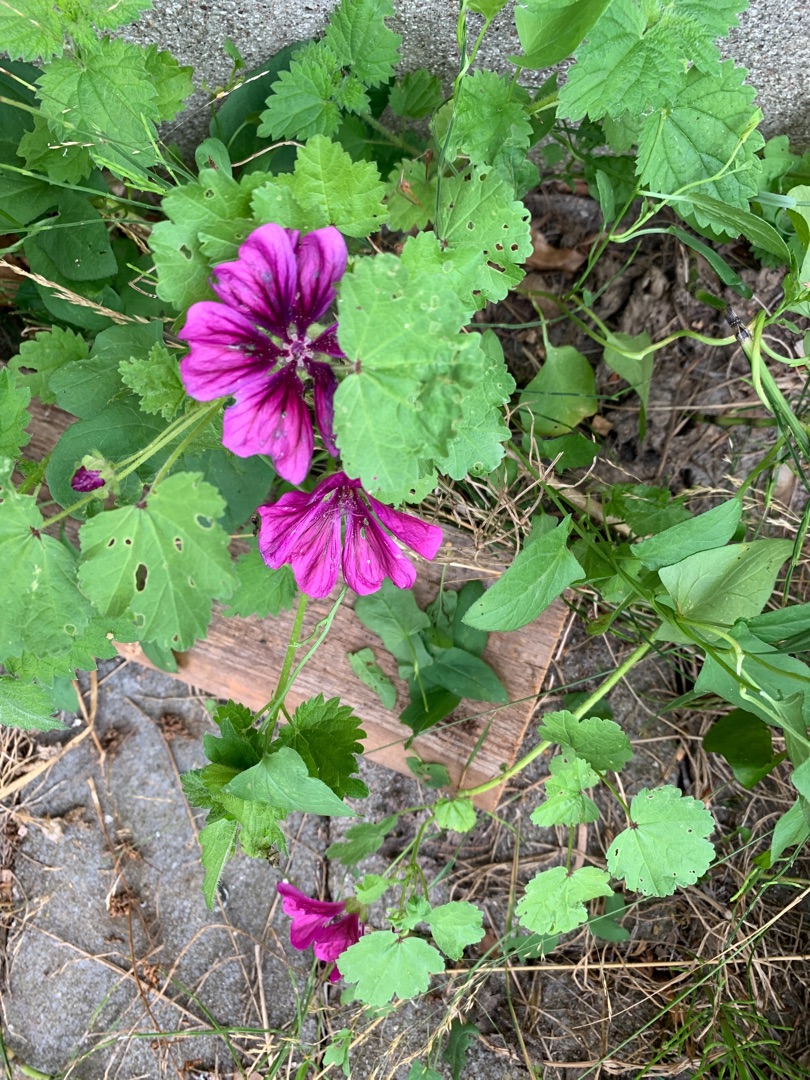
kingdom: Plantae
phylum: Tracheophyta
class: Magnoliopsida
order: Malvales
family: Malvaceae
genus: Malva
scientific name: Malva sylvestris
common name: Stor katost
